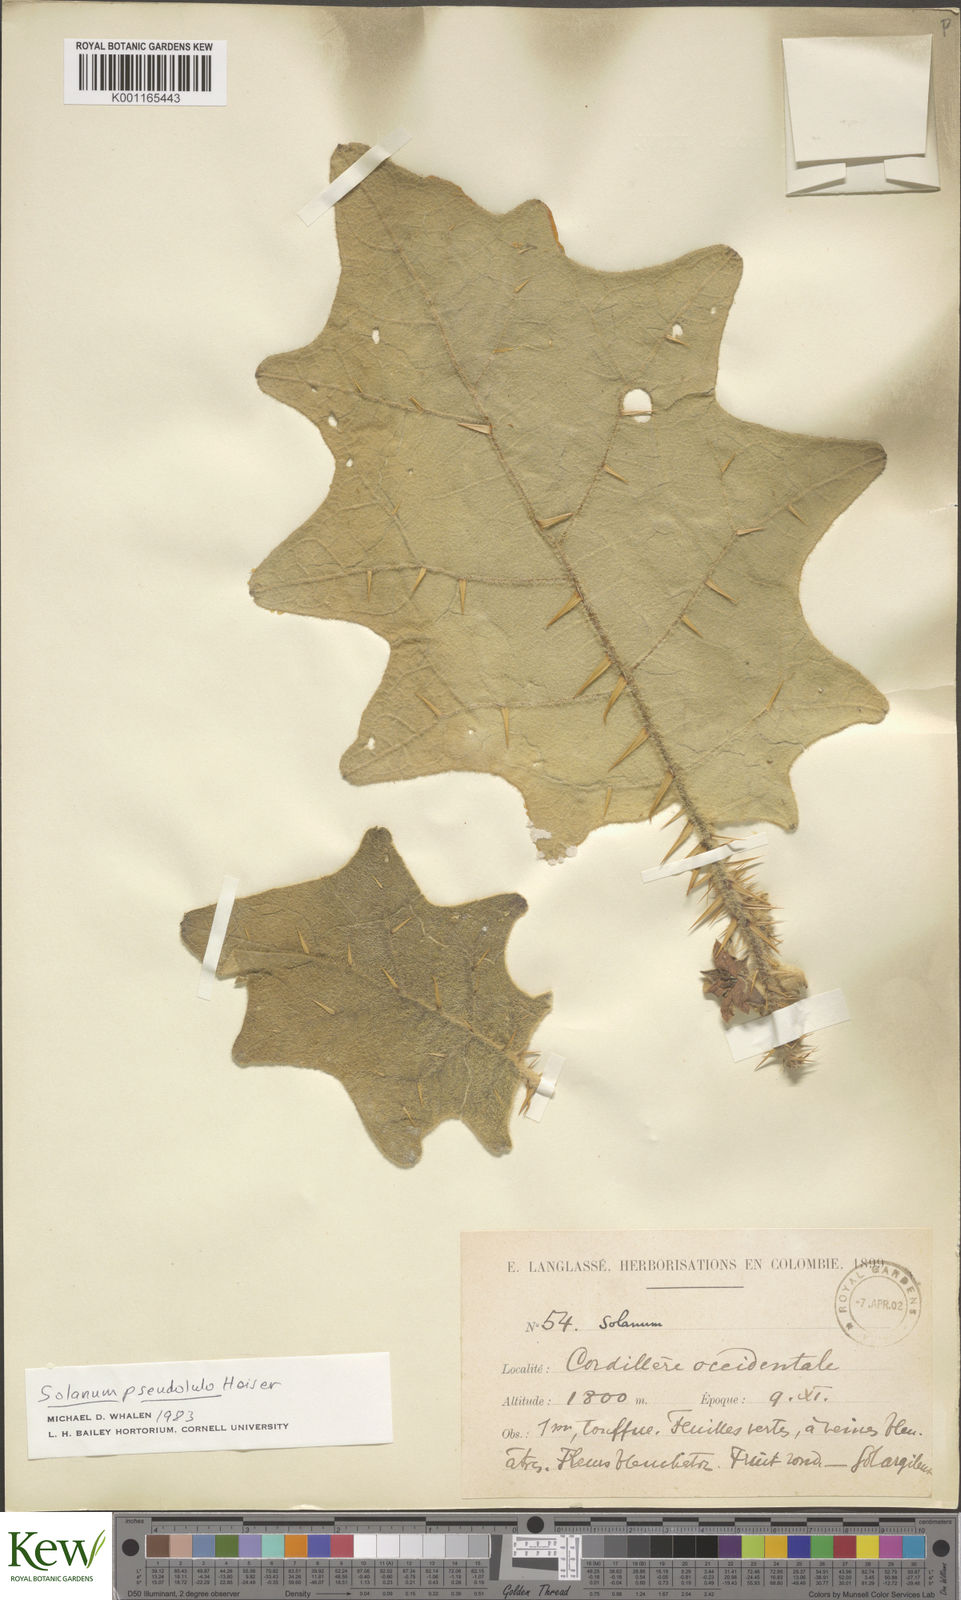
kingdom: Plantae
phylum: Tracheophyta
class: Magnoliopsida
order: Solanales
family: Solanaceae
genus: Solanum
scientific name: Solanum pseudolulo
